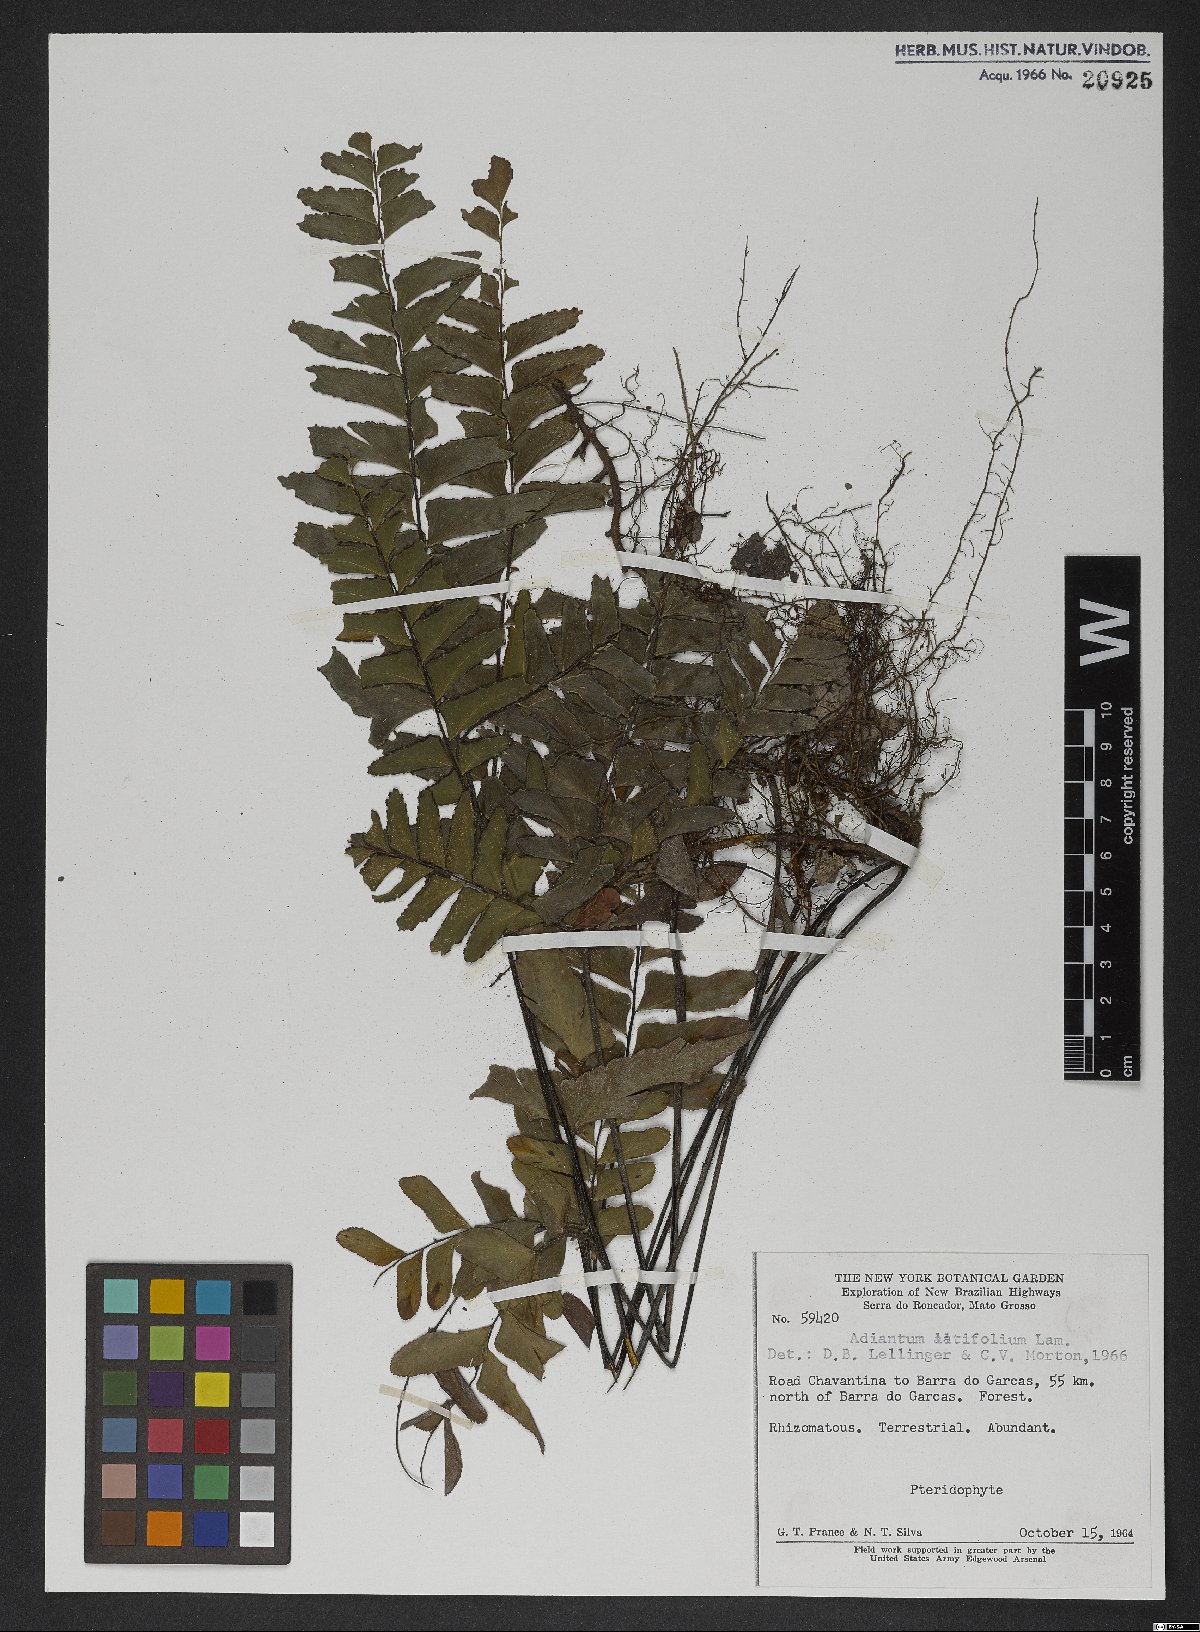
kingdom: Plantae
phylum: Tracheophyta
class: Polypodiopsida
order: Polypodiales
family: Pteridaceae
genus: Adiantum
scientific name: Adiantum latifolium
